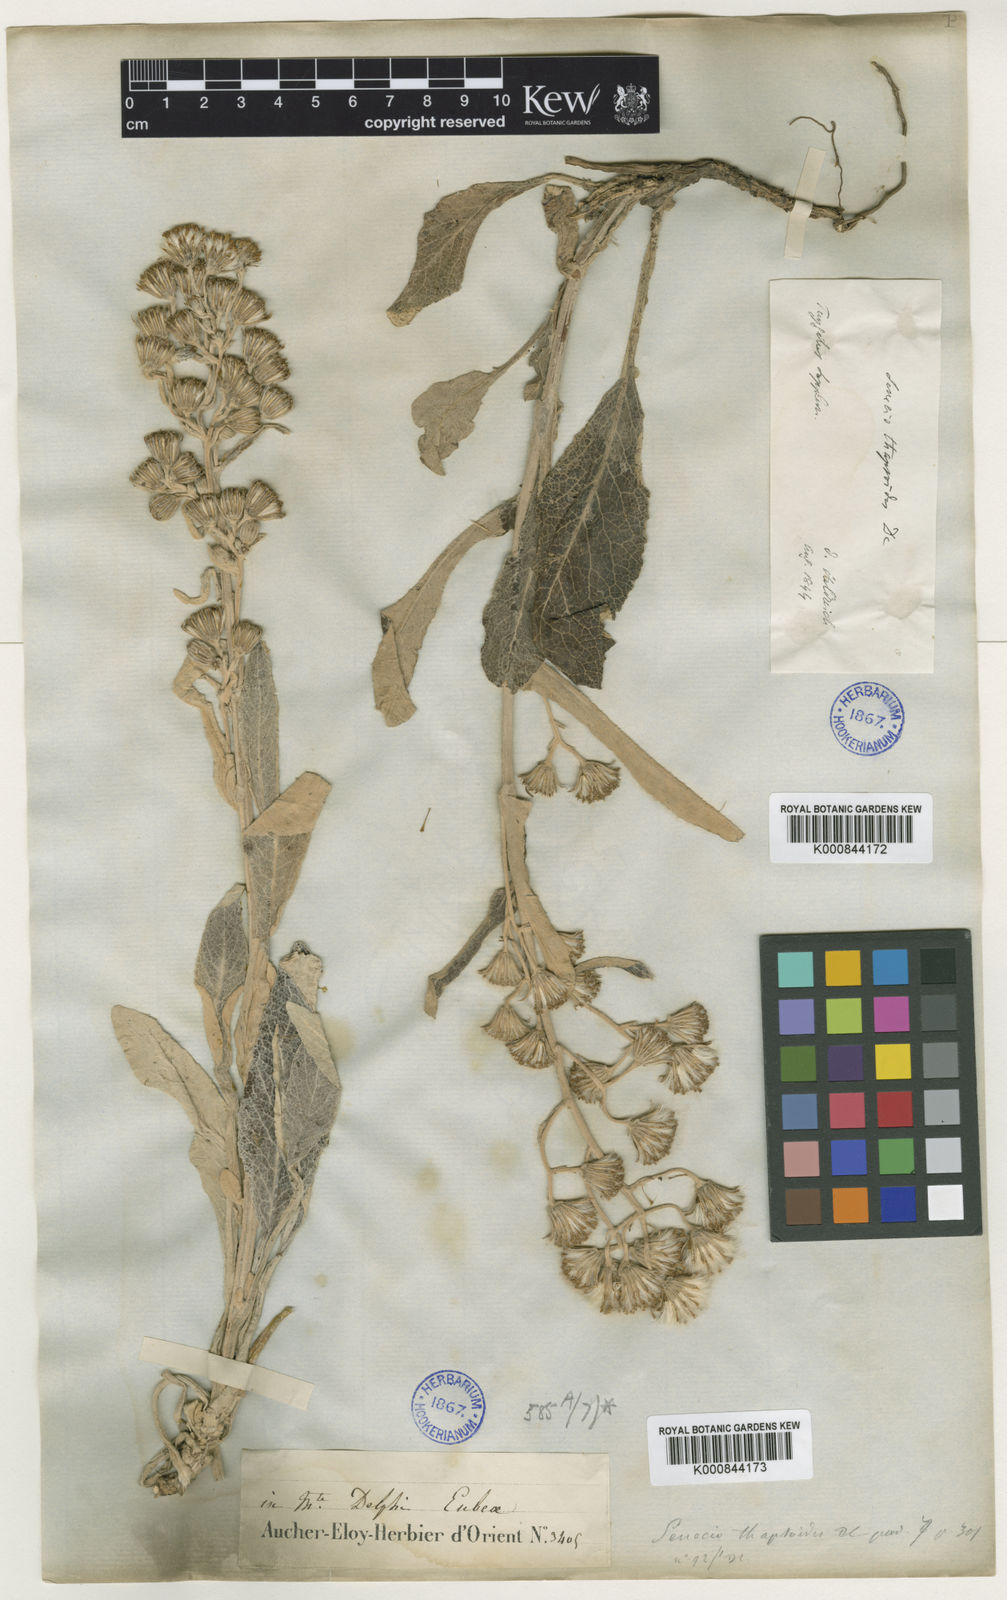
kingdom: Plantae
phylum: Tracheophyta
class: Magnoliopsida
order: Asterales
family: Asteraceae
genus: Senecio
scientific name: Senecio thapsoides
